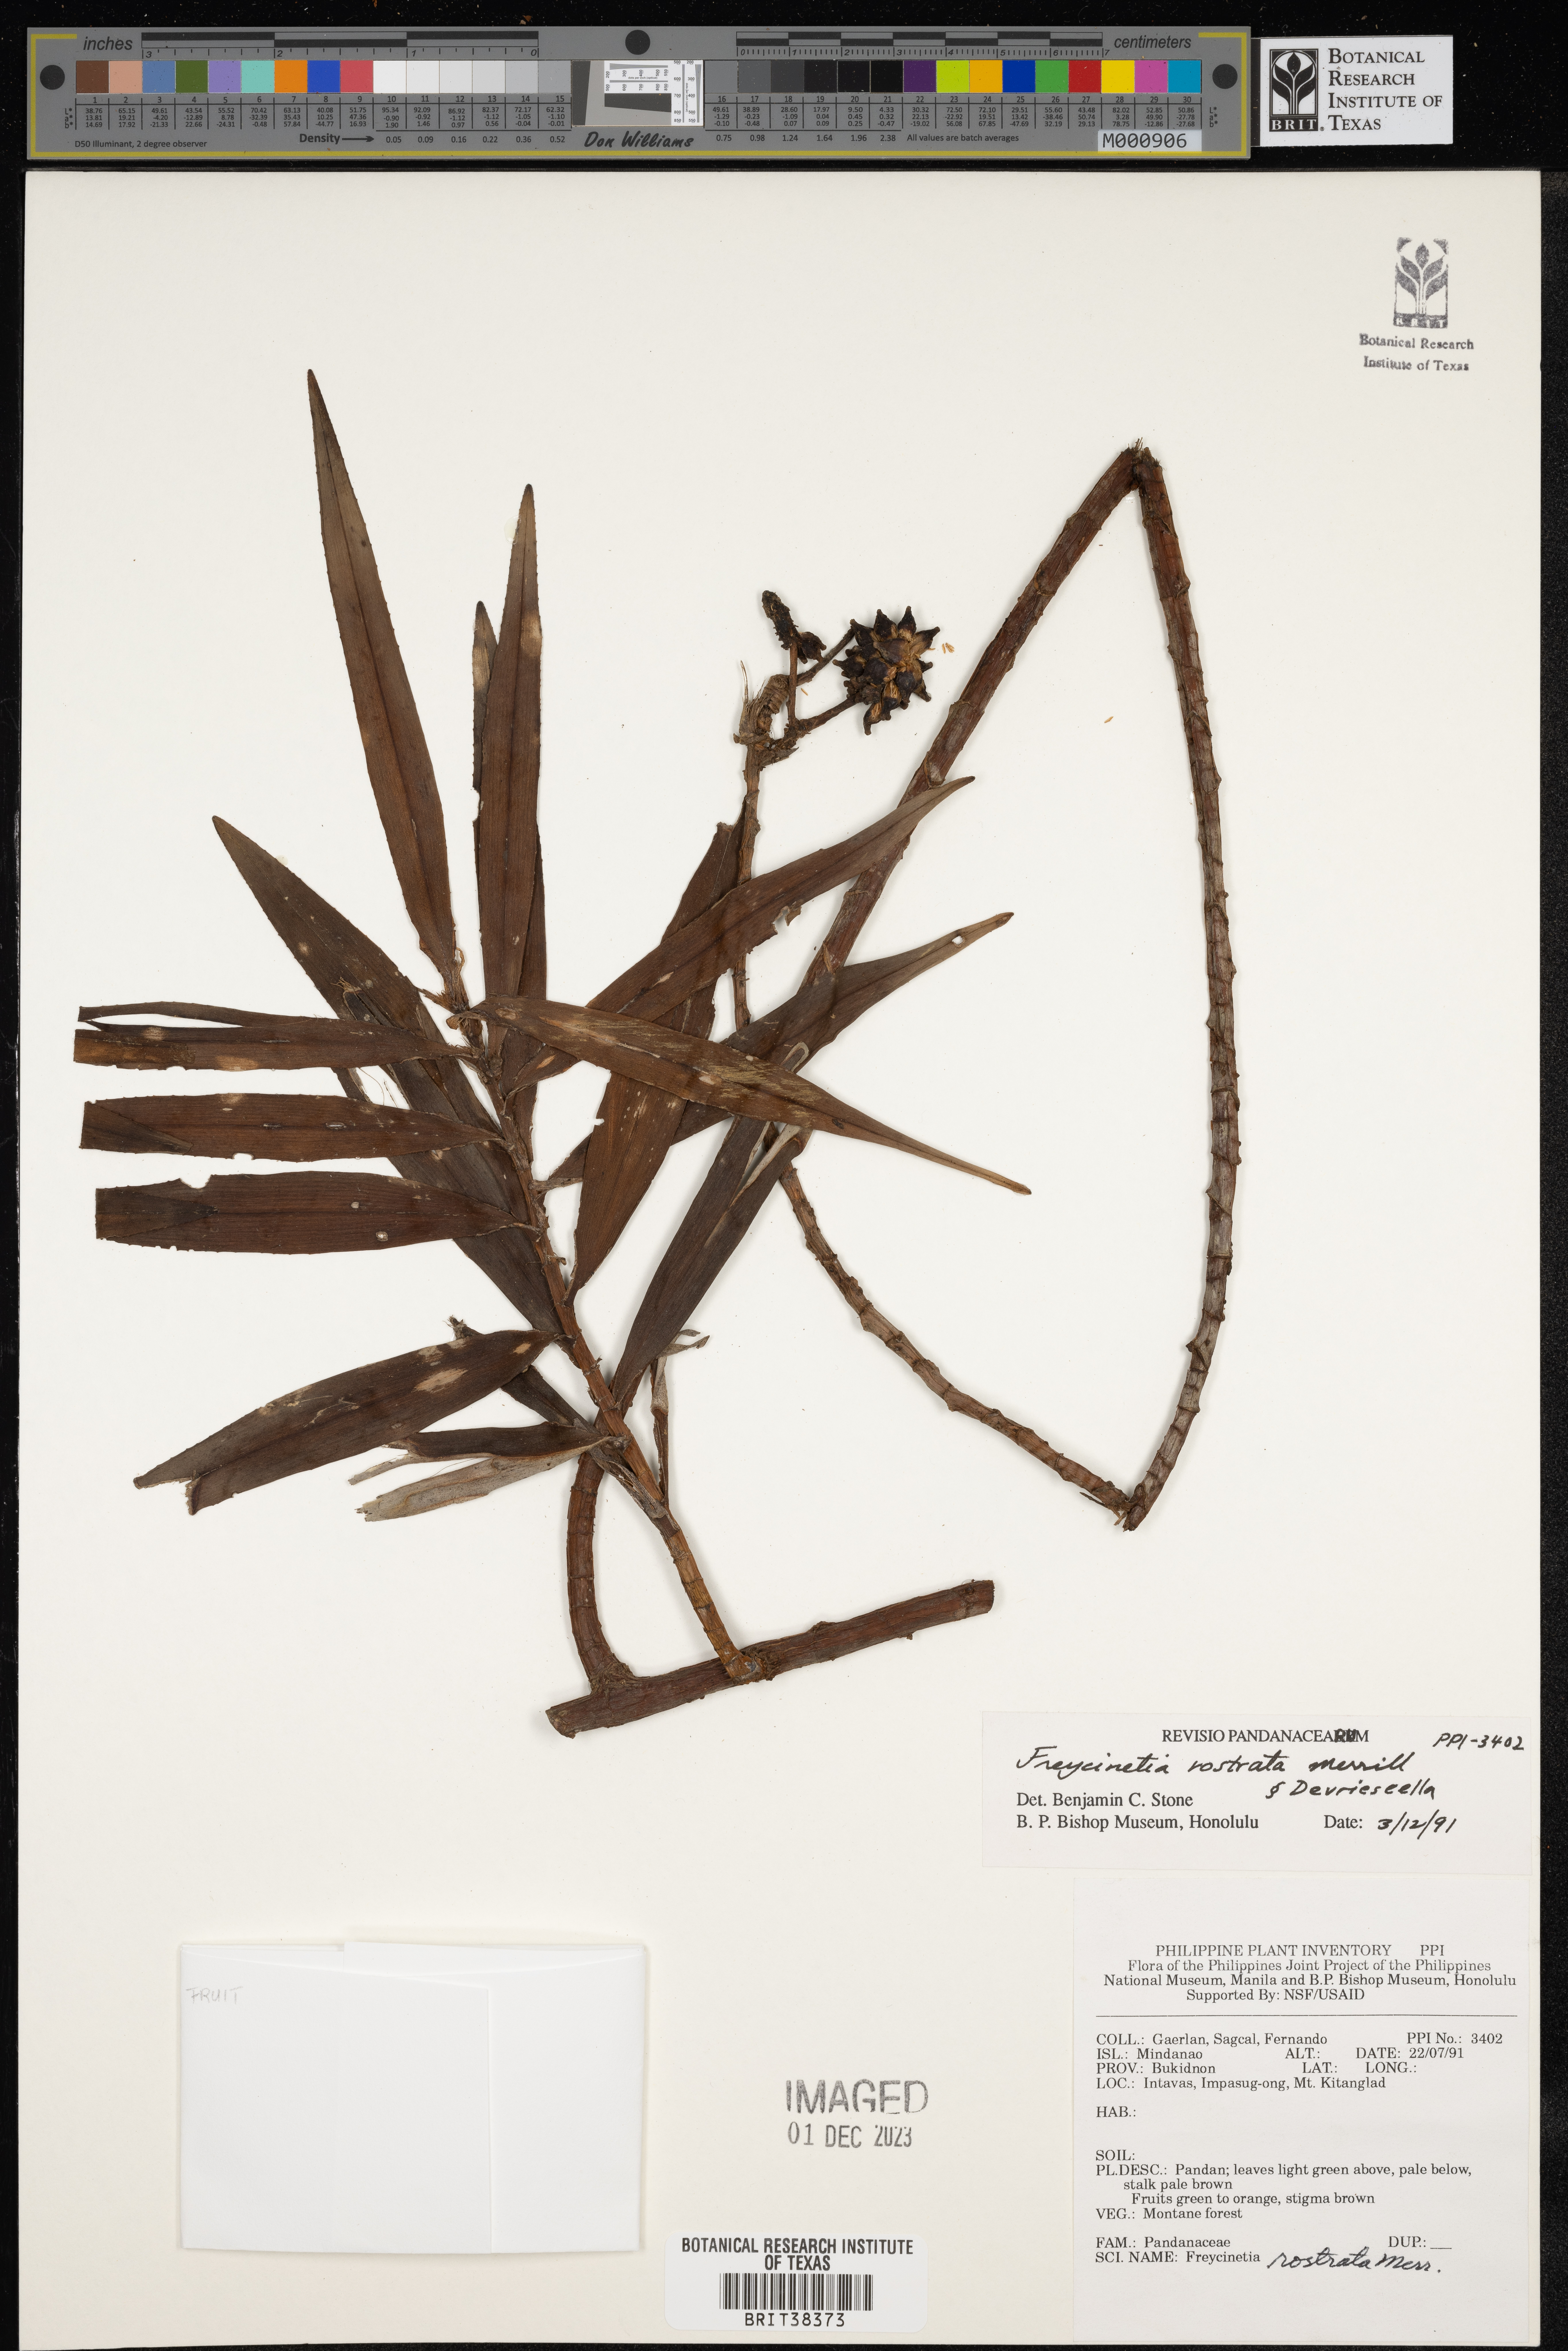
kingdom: Plantae
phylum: Tracheophyta
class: Liliopsida
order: Pandanales
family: Pandanaceae
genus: Freycinetia
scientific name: Freycinetia devriesei
